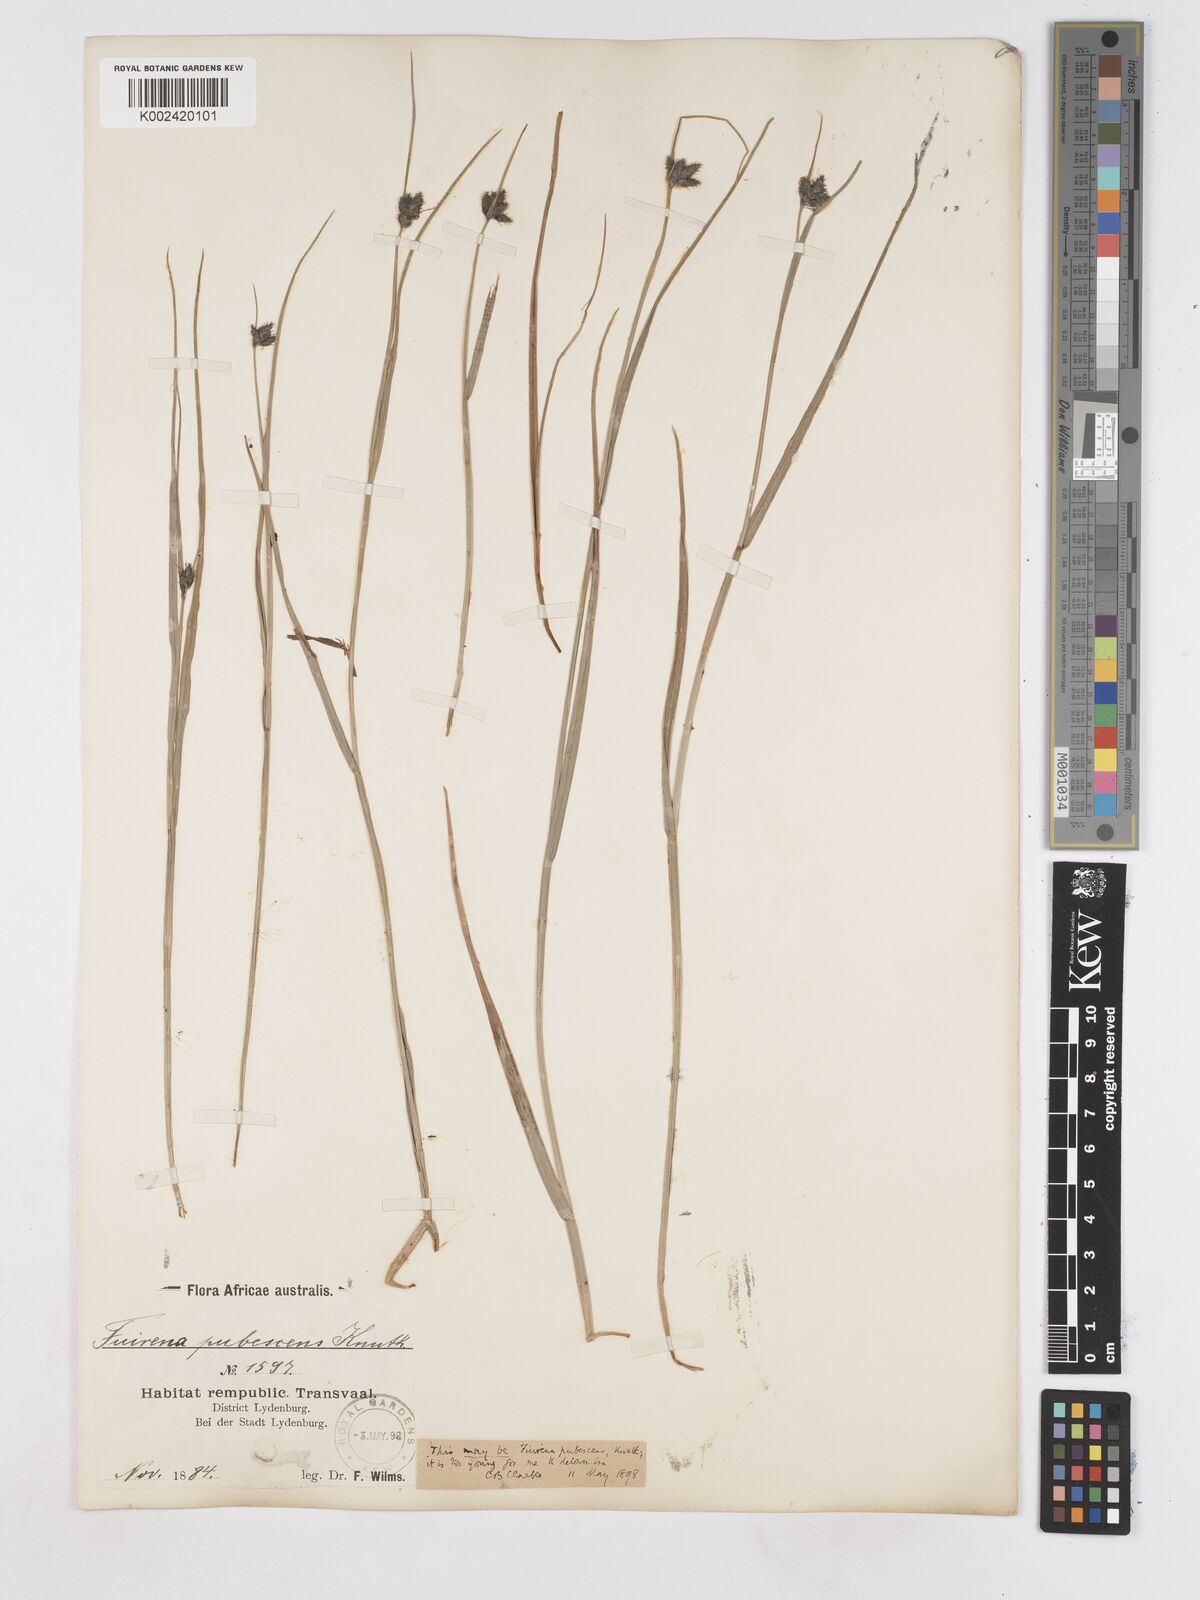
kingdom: Plantae
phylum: Tracheophyta
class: Liliopsida
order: Poales
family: Cyperaceae
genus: Fuirena
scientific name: Fuirena pubescens
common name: Hairy sedge
